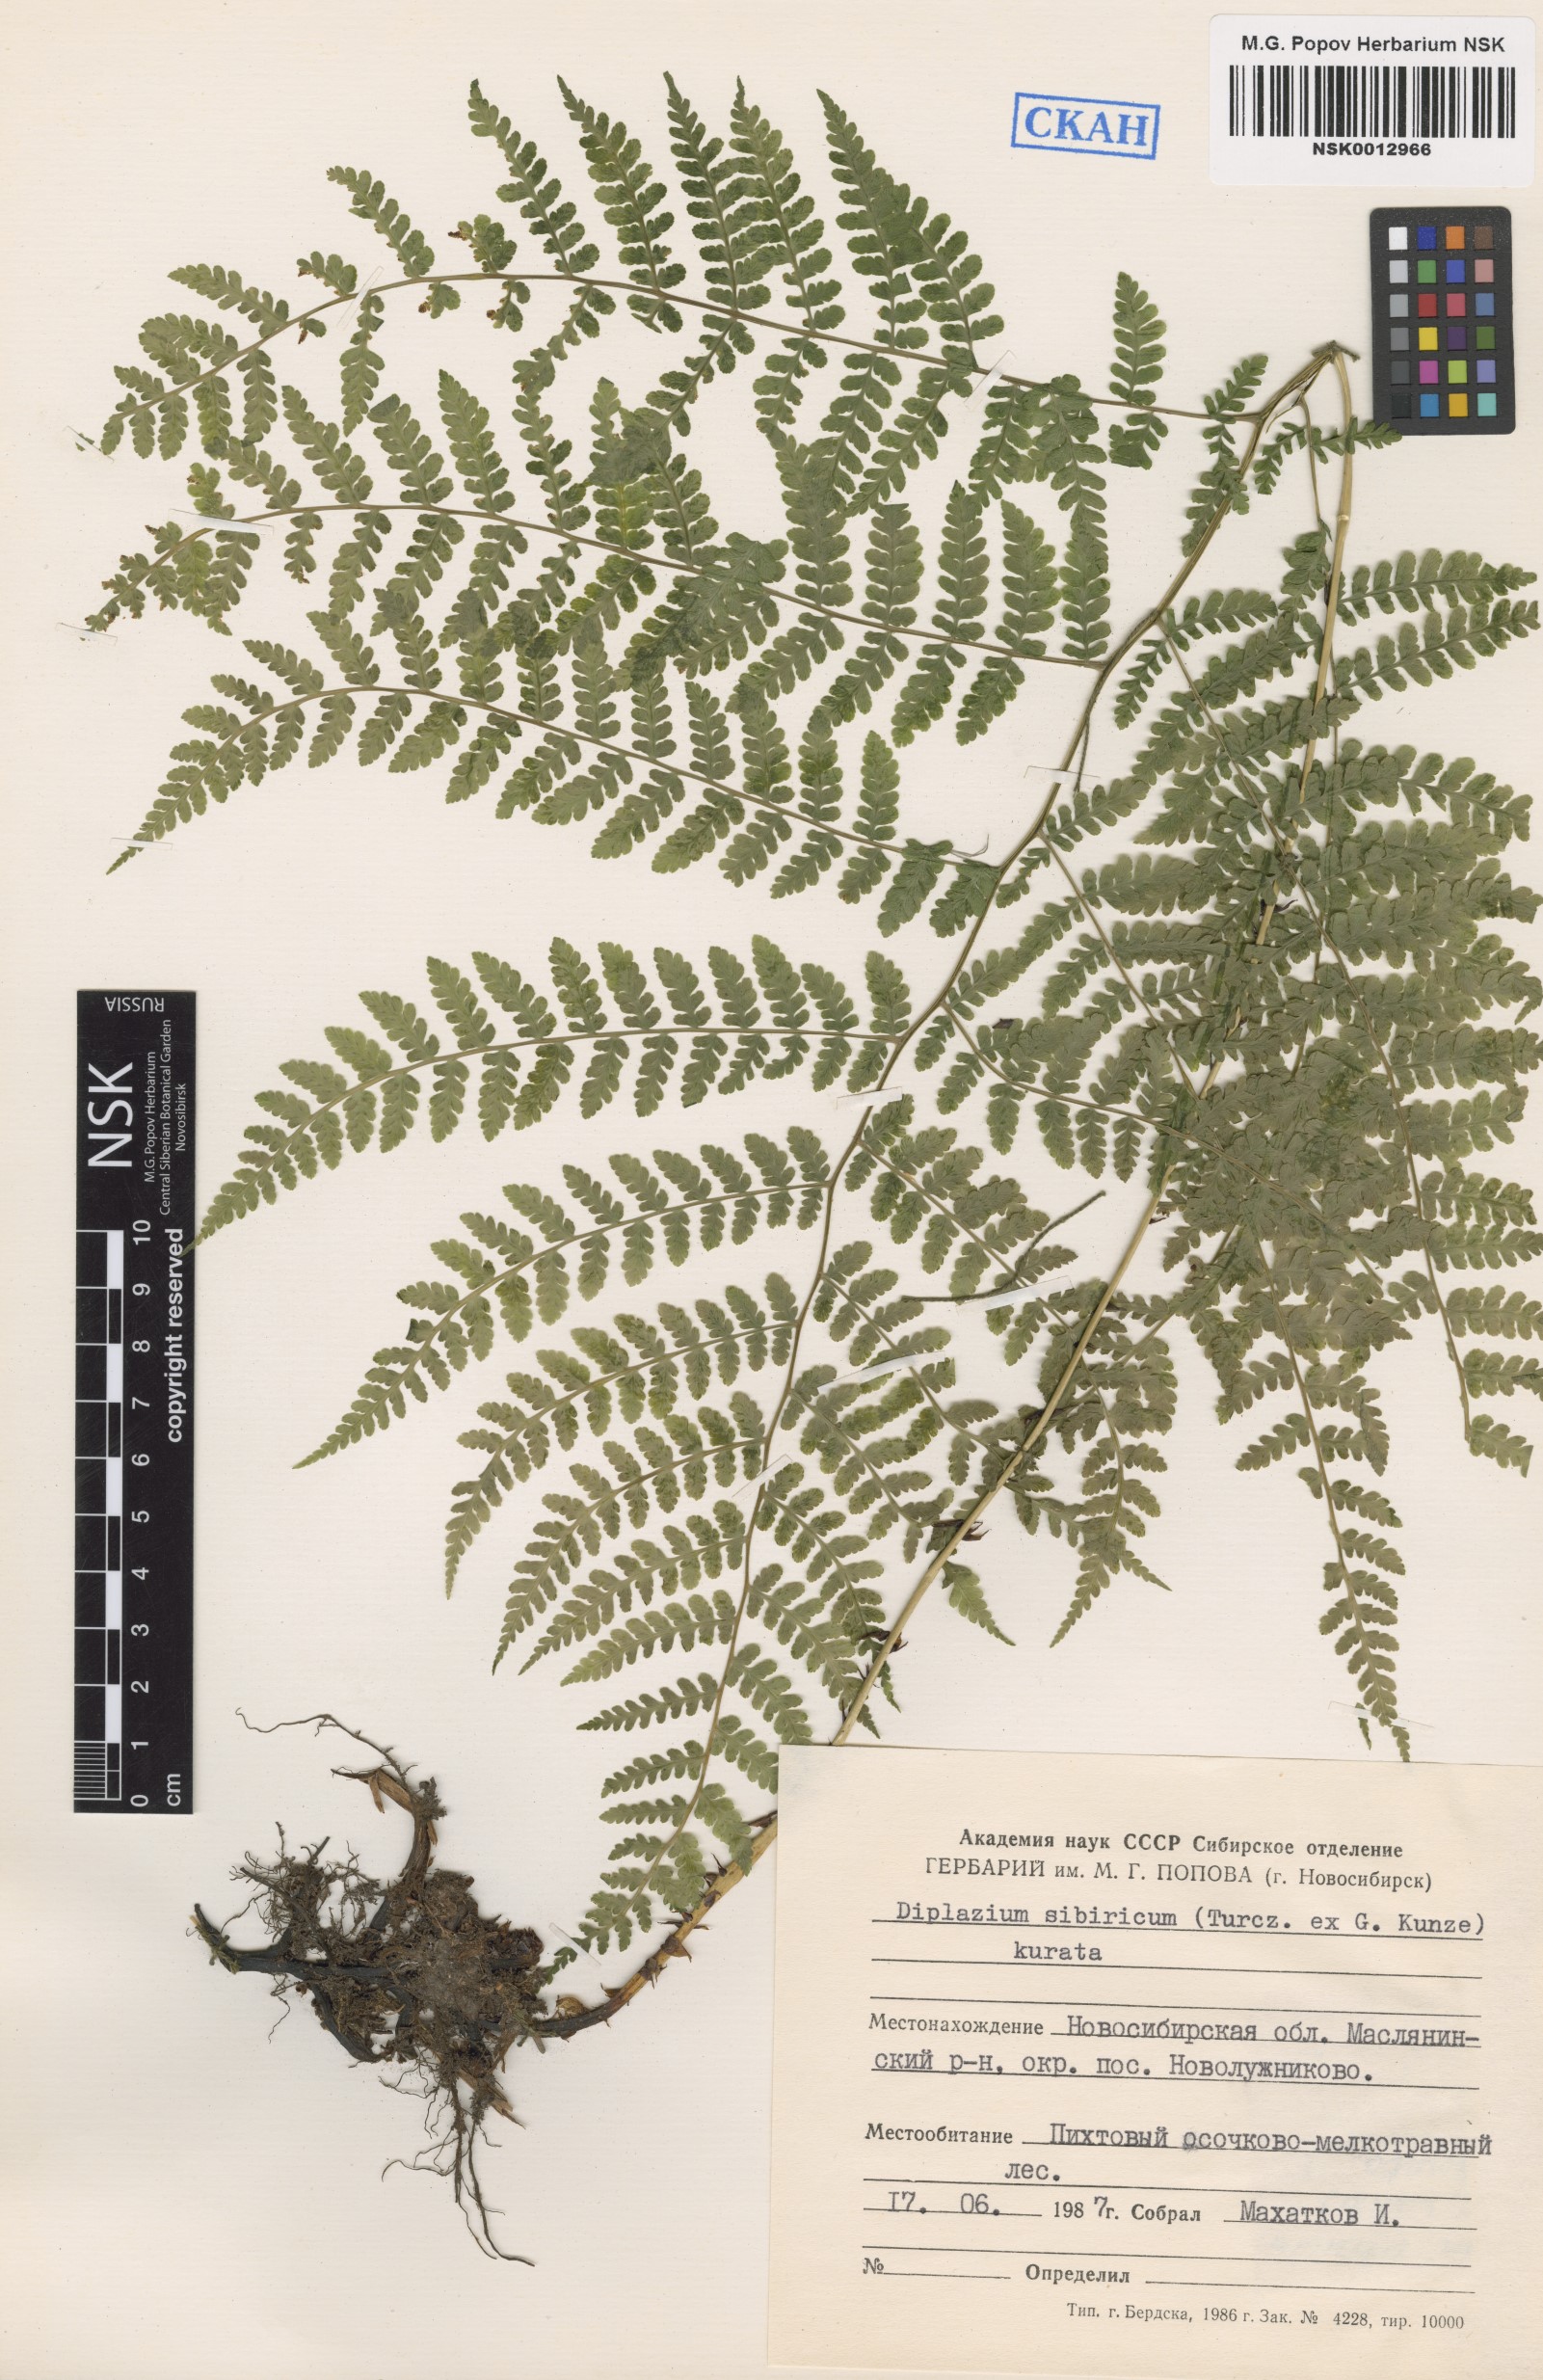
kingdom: Plantae
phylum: Tracheophyta
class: Polypodiopsida
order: Polypodiales
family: Athyriaceae
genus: Diplazium
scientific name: Diplazium sibiricum
